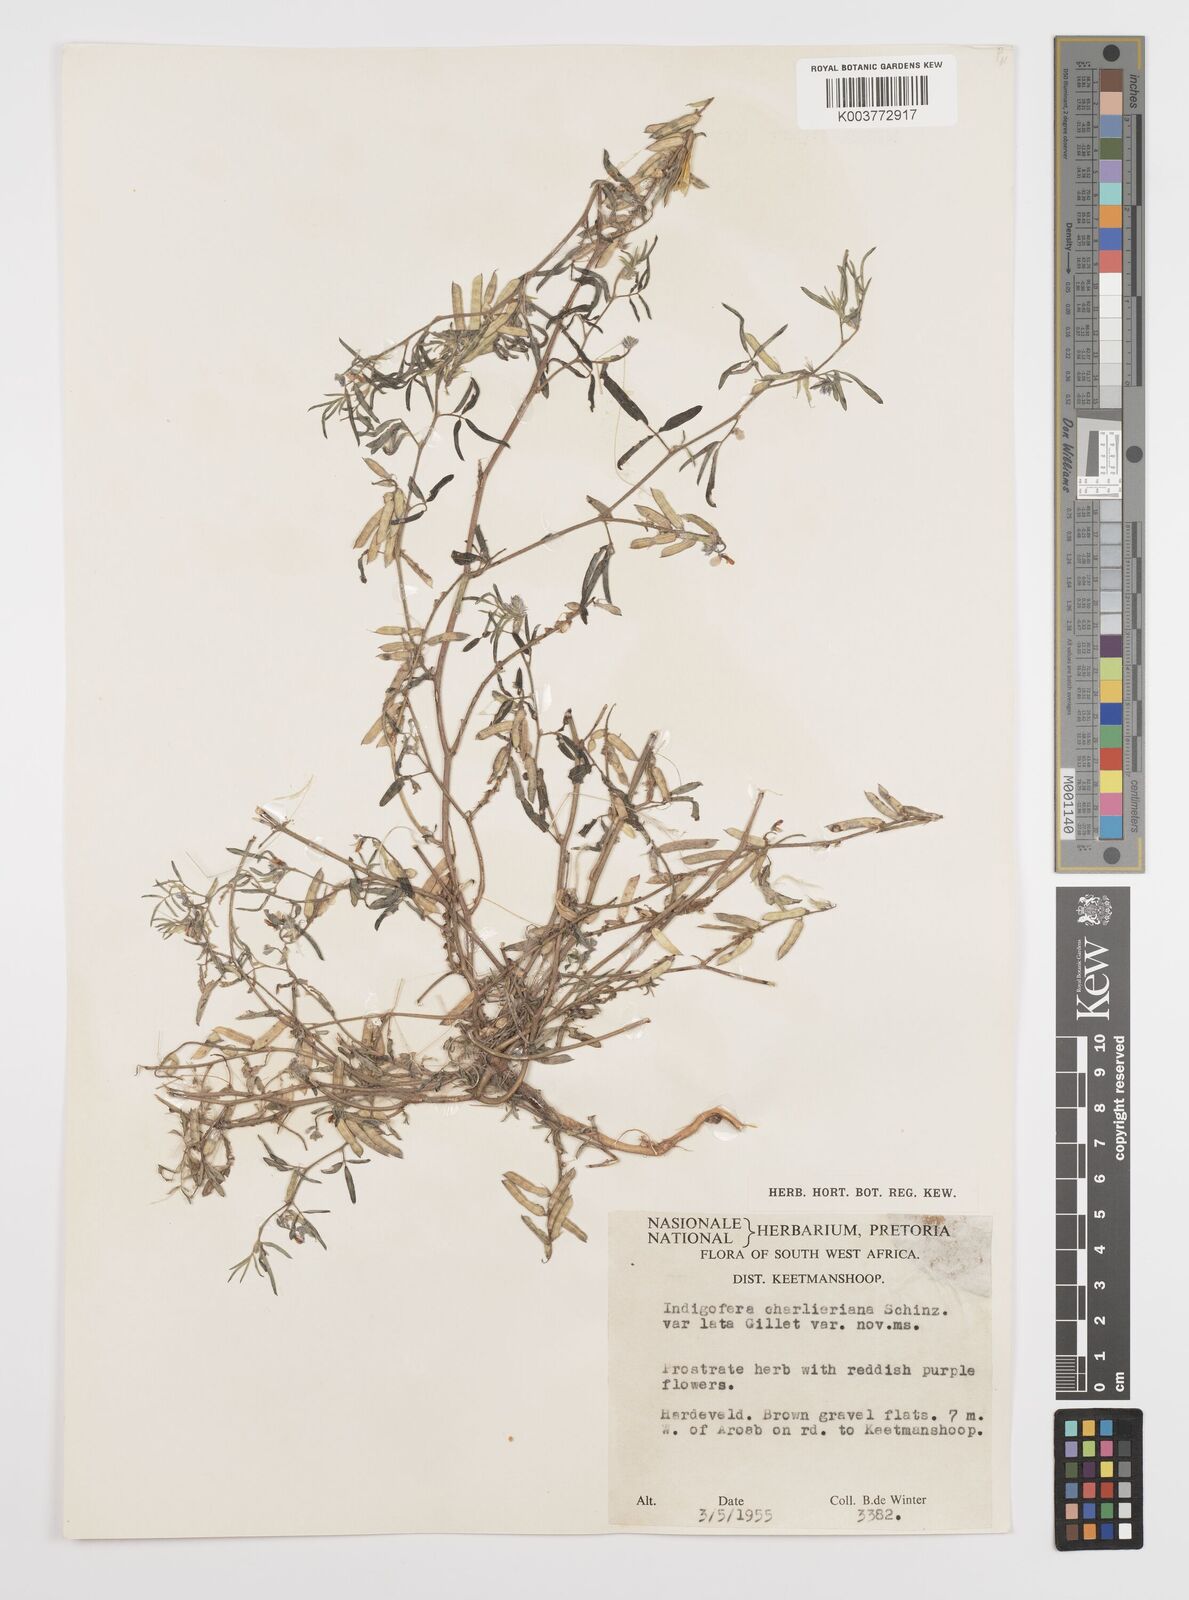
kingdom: Plantae
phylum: Tracheophyta
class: Magnoliopsida
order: Fabales
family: Fabaceae
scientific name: Fabaceae
